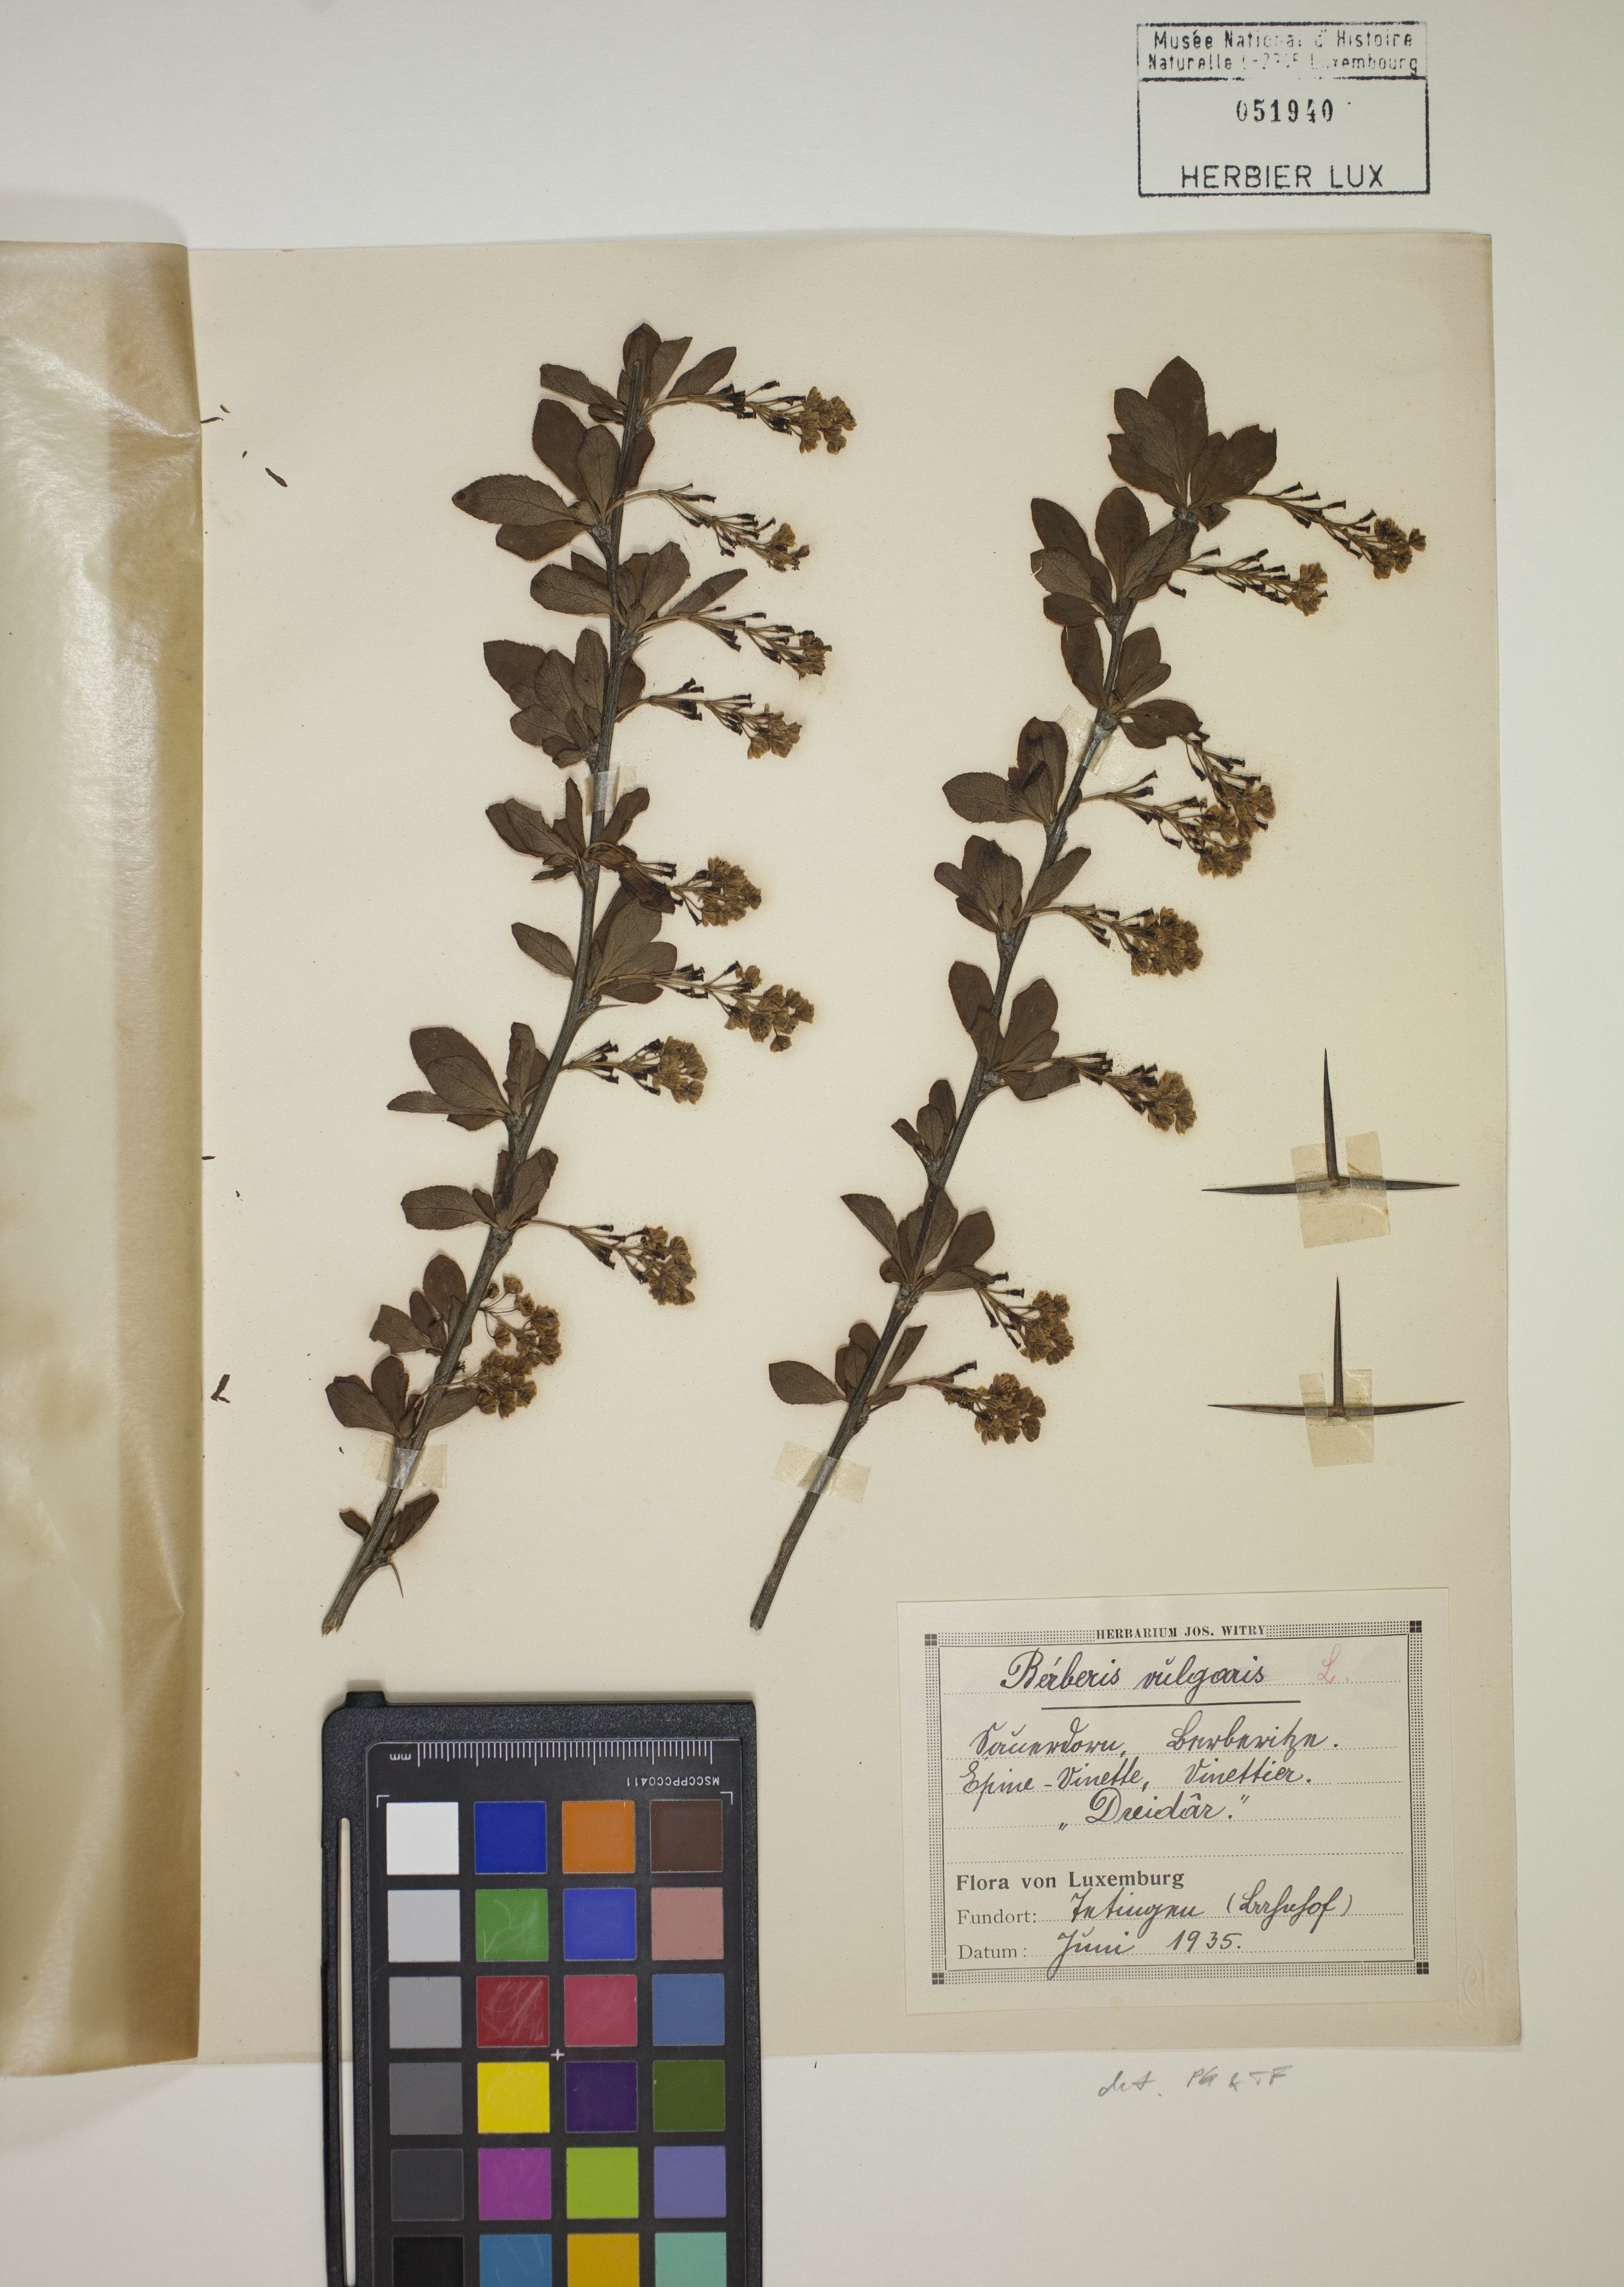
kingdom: Plantae
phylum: Tracheophyta
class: Magnoliopsida
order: Ranunculales
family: Berberidaceae
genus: Berberis
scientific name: Berberis vulgaris
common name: Barberry
